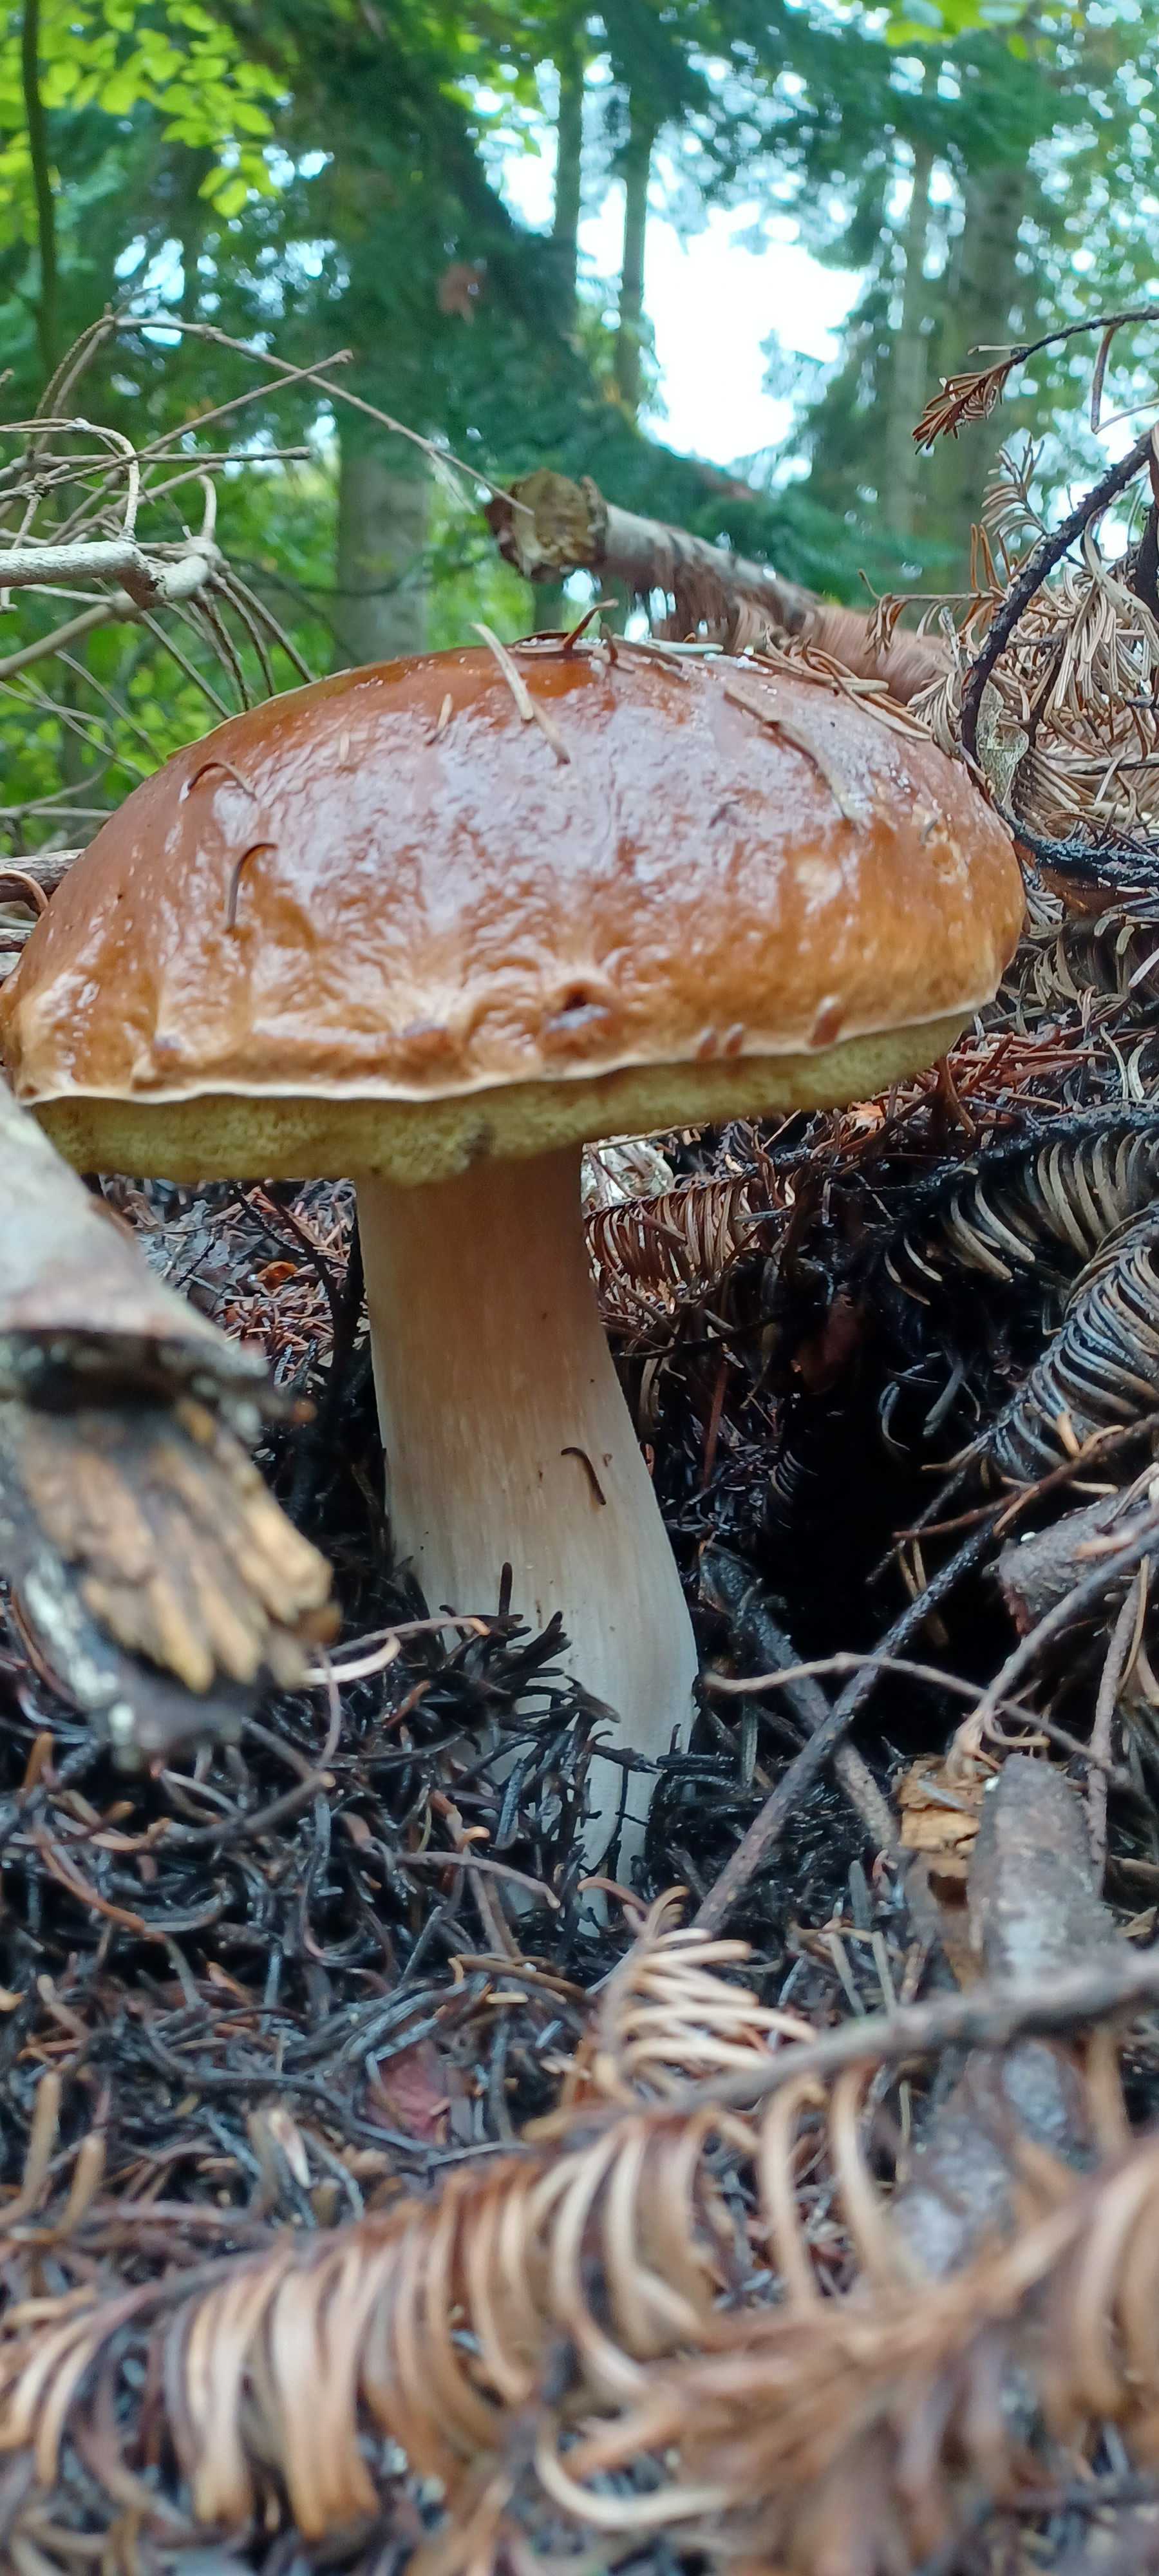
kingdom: Fungi
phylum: Basidiomycota
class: Agaricomycetes
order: Boletales
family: Boletaceae
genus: Boletus
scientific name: Boletus edulis
